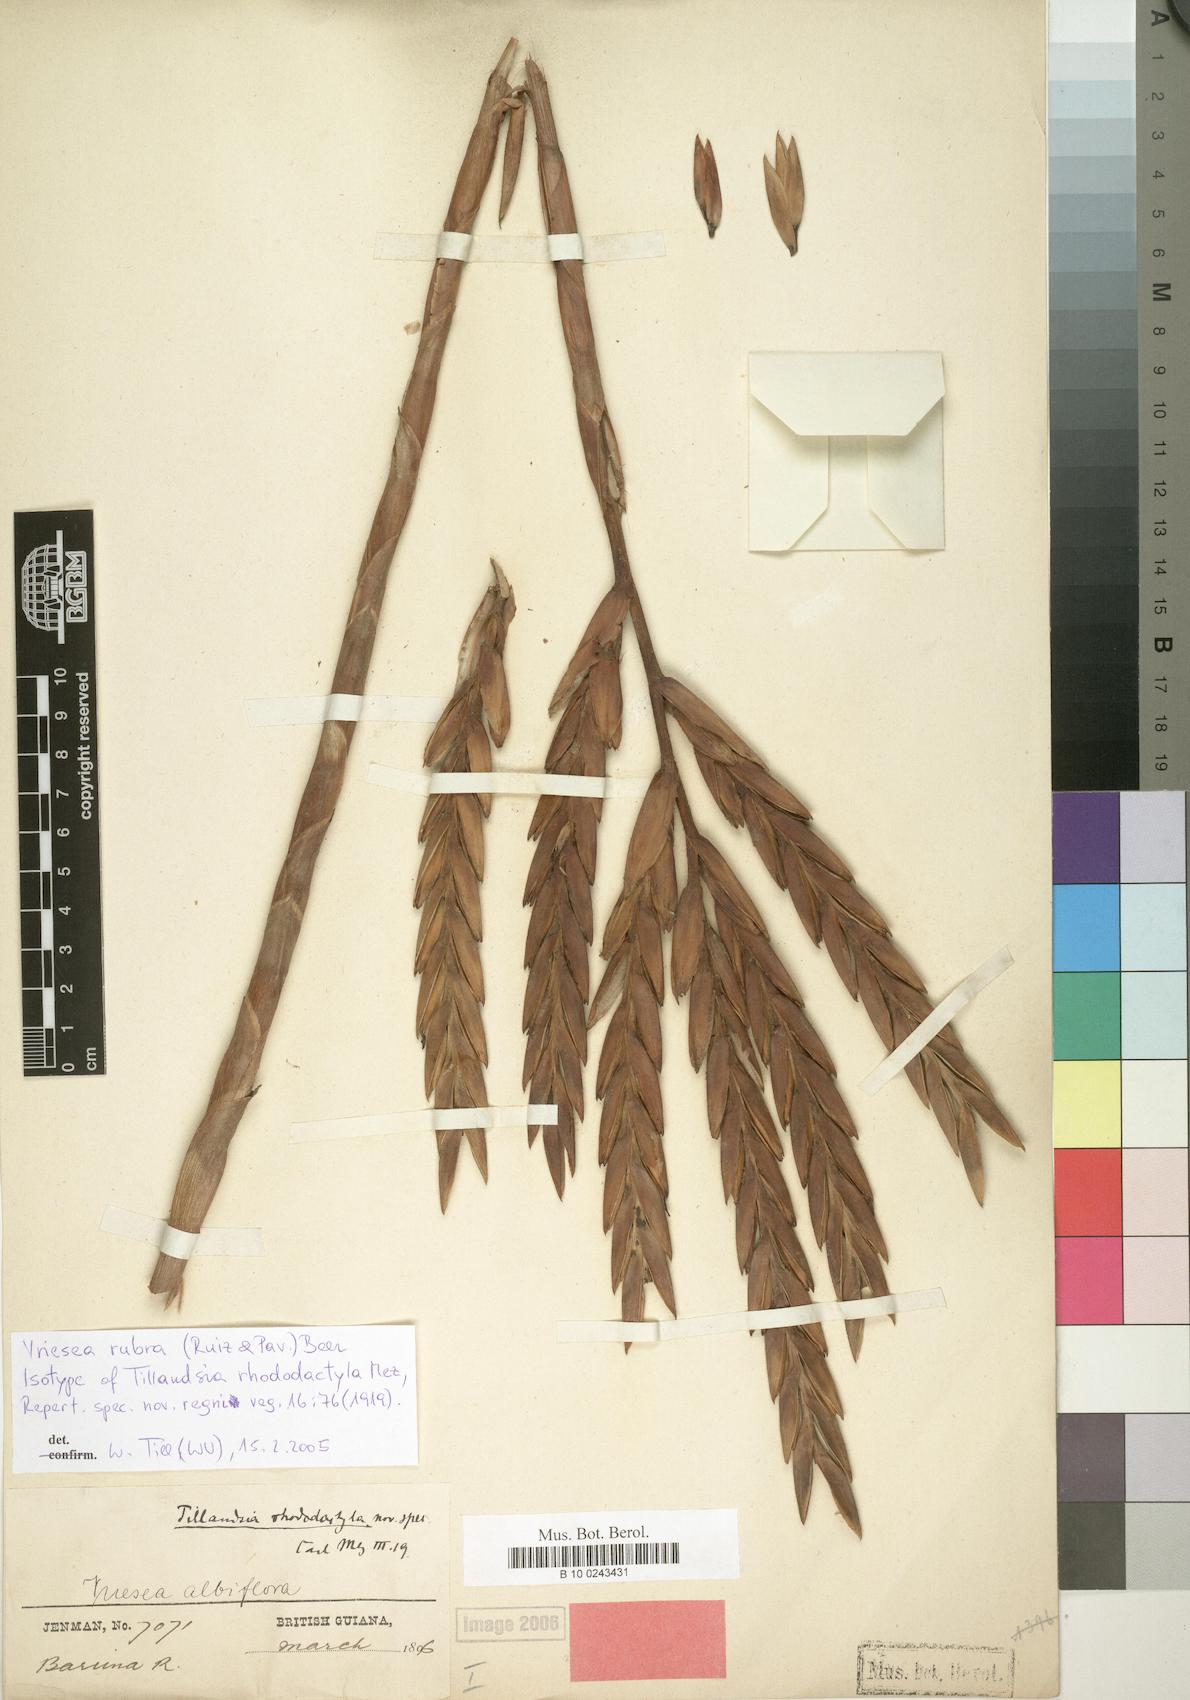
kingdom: Plantae
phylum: Tracheophyta
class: Liliopsida
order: Poales
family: Bromeliaceae
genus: Vriesea
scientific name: Vriesea rubra
